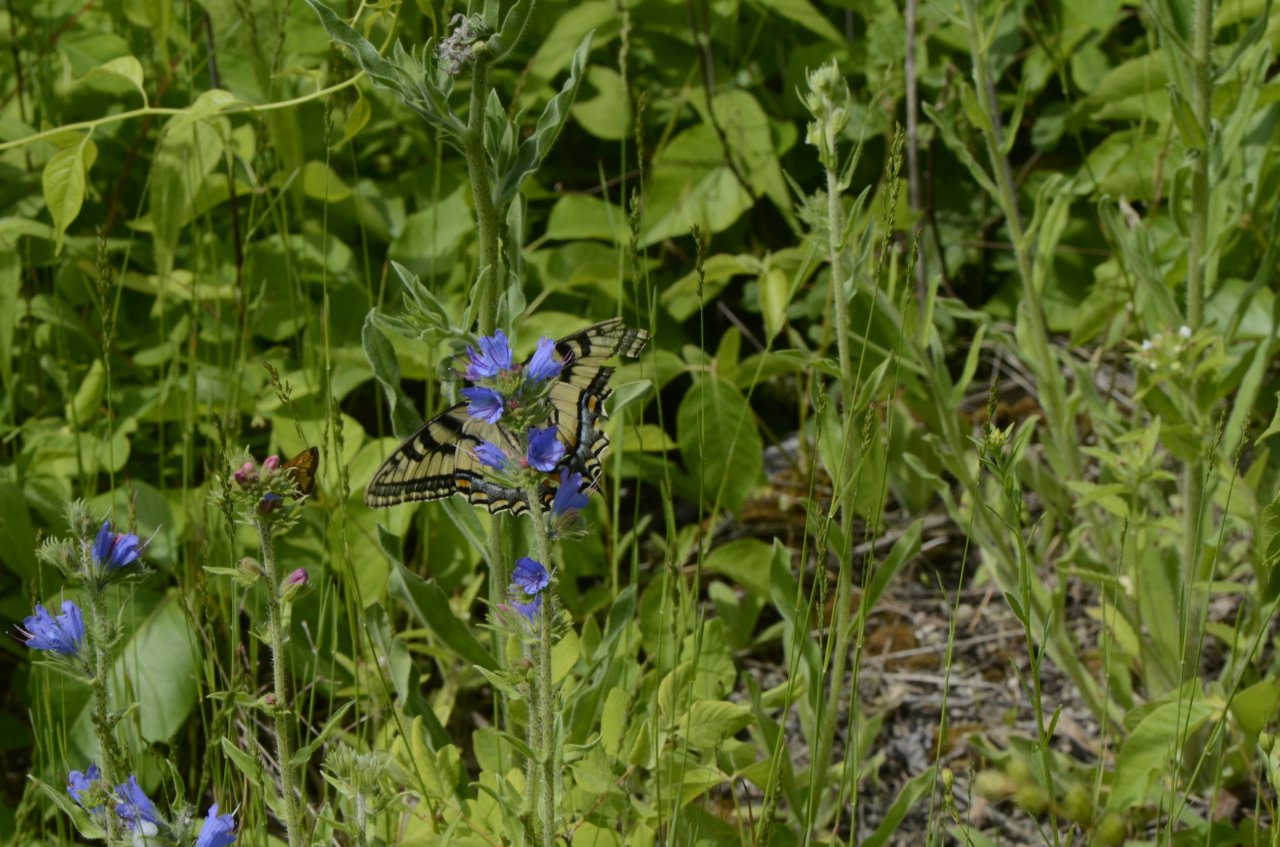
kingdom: Animalia
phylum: Arthropoda
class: Insecta
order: Lepidoptera
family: Papilionidae
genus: Pterourus
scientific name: Pterourus canadensis
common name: Canadian Tiger Swallowtail
